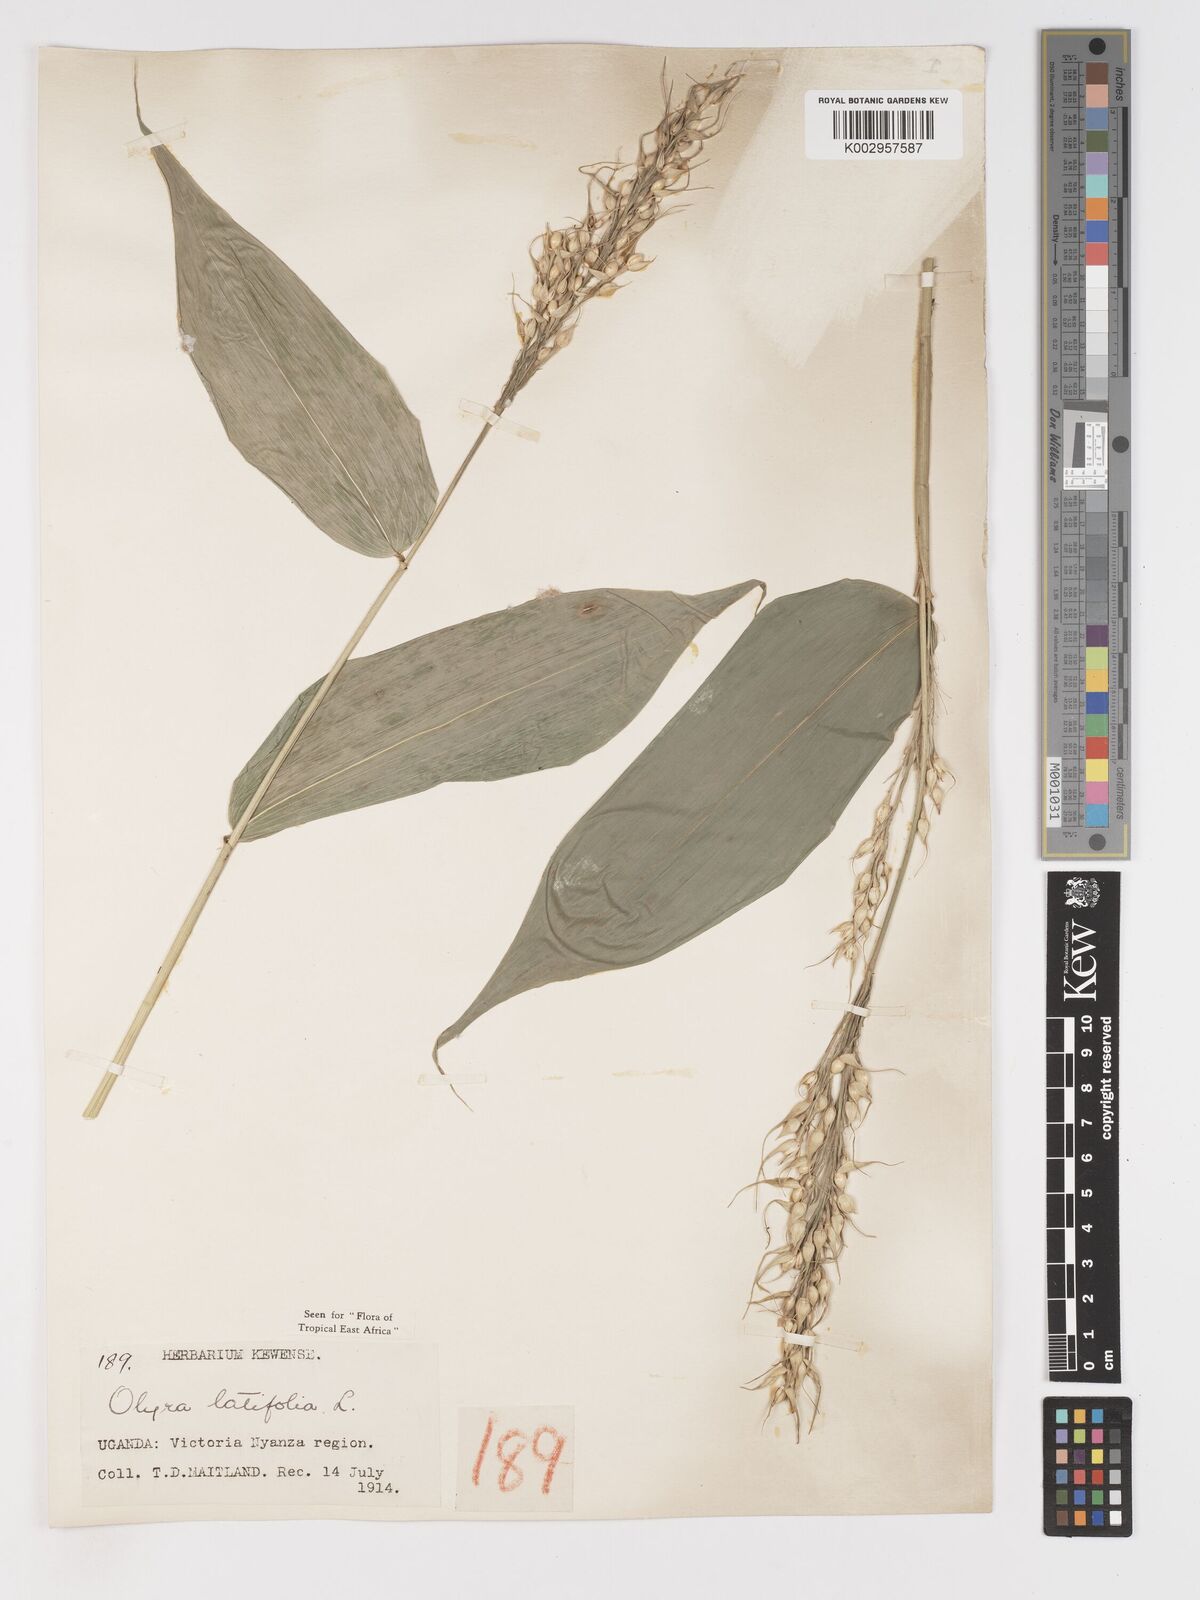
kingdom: Plantae
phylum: Tracheophyta
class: Liliopsida
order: Poales
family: Poaceae
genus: Olyra
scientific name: Olyra latifolia
